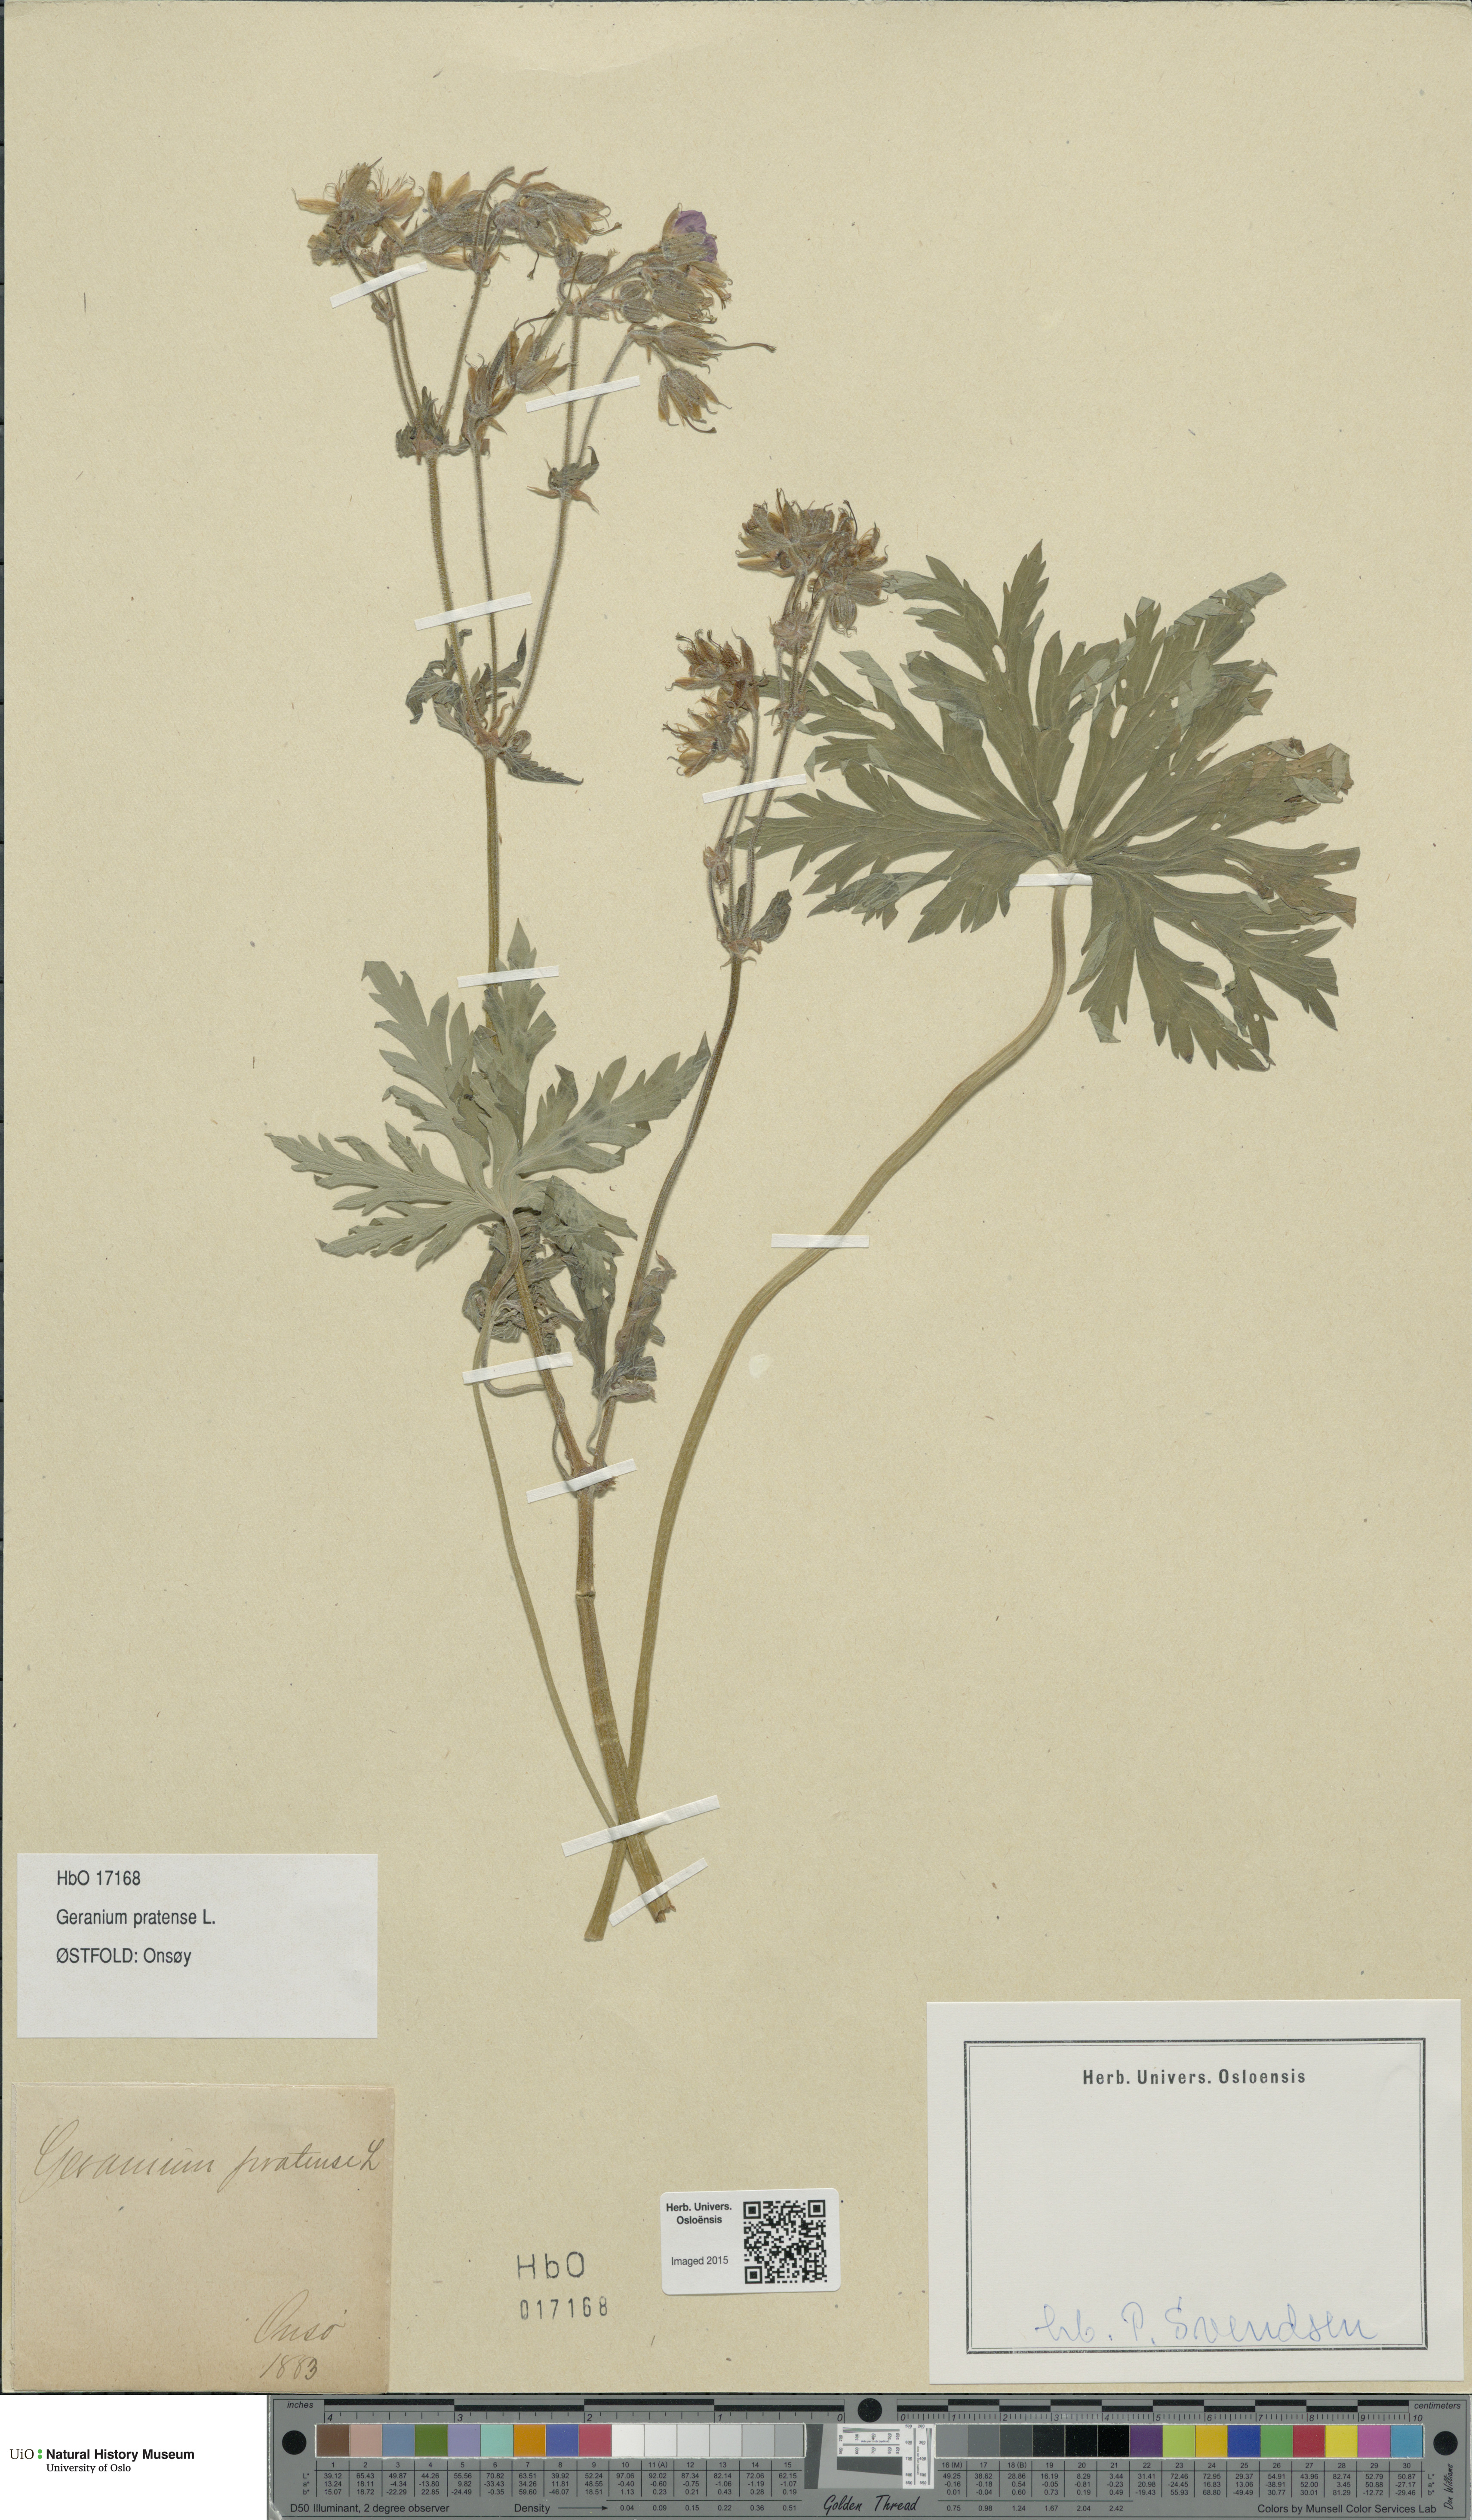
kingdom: Plantae
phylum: Tracheophyta
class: Magnoliopsida
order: Geraniales
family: Geraniaceae
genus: Geranium
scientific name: Geranium pratense
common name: Meadow crane's-bill
